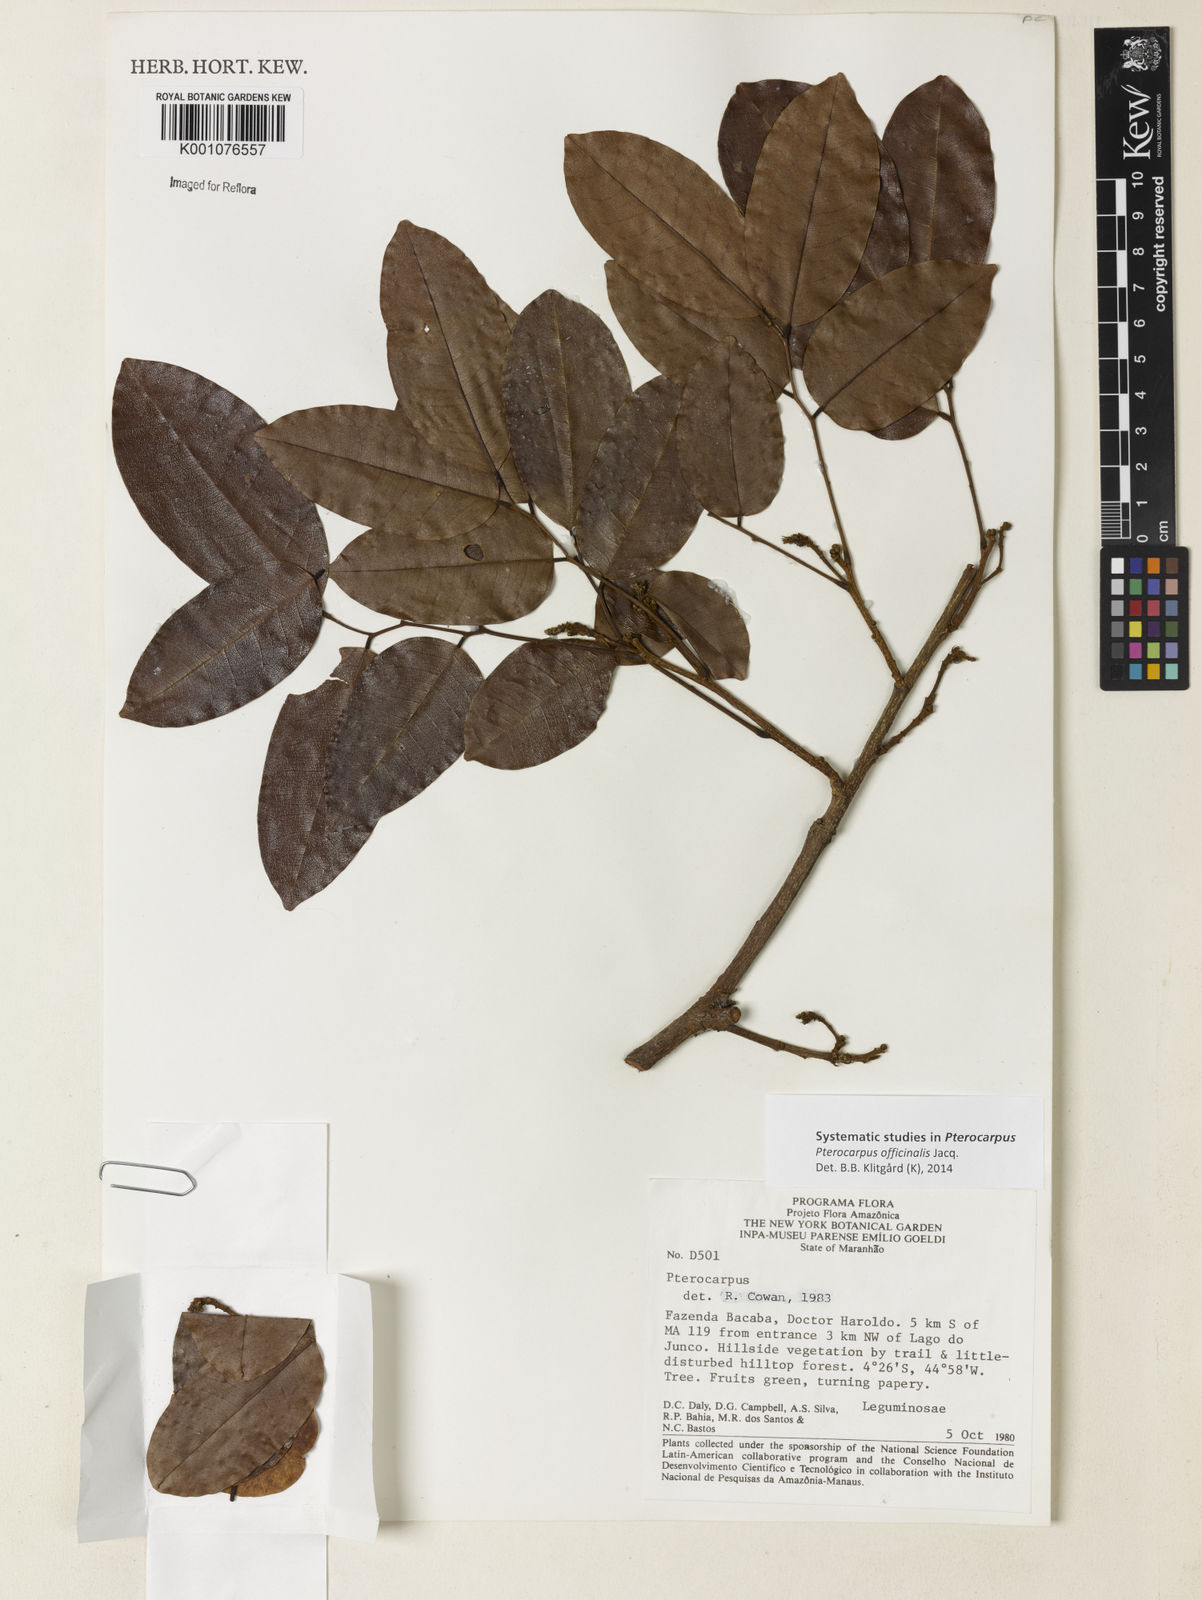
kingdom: Plantae
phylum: Tracheophyta
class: Magnoliopsida
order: Fabales
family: Fabaceae
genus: Pterocarpus
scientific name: Pterocarpus officinalis
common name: Bloodwood
